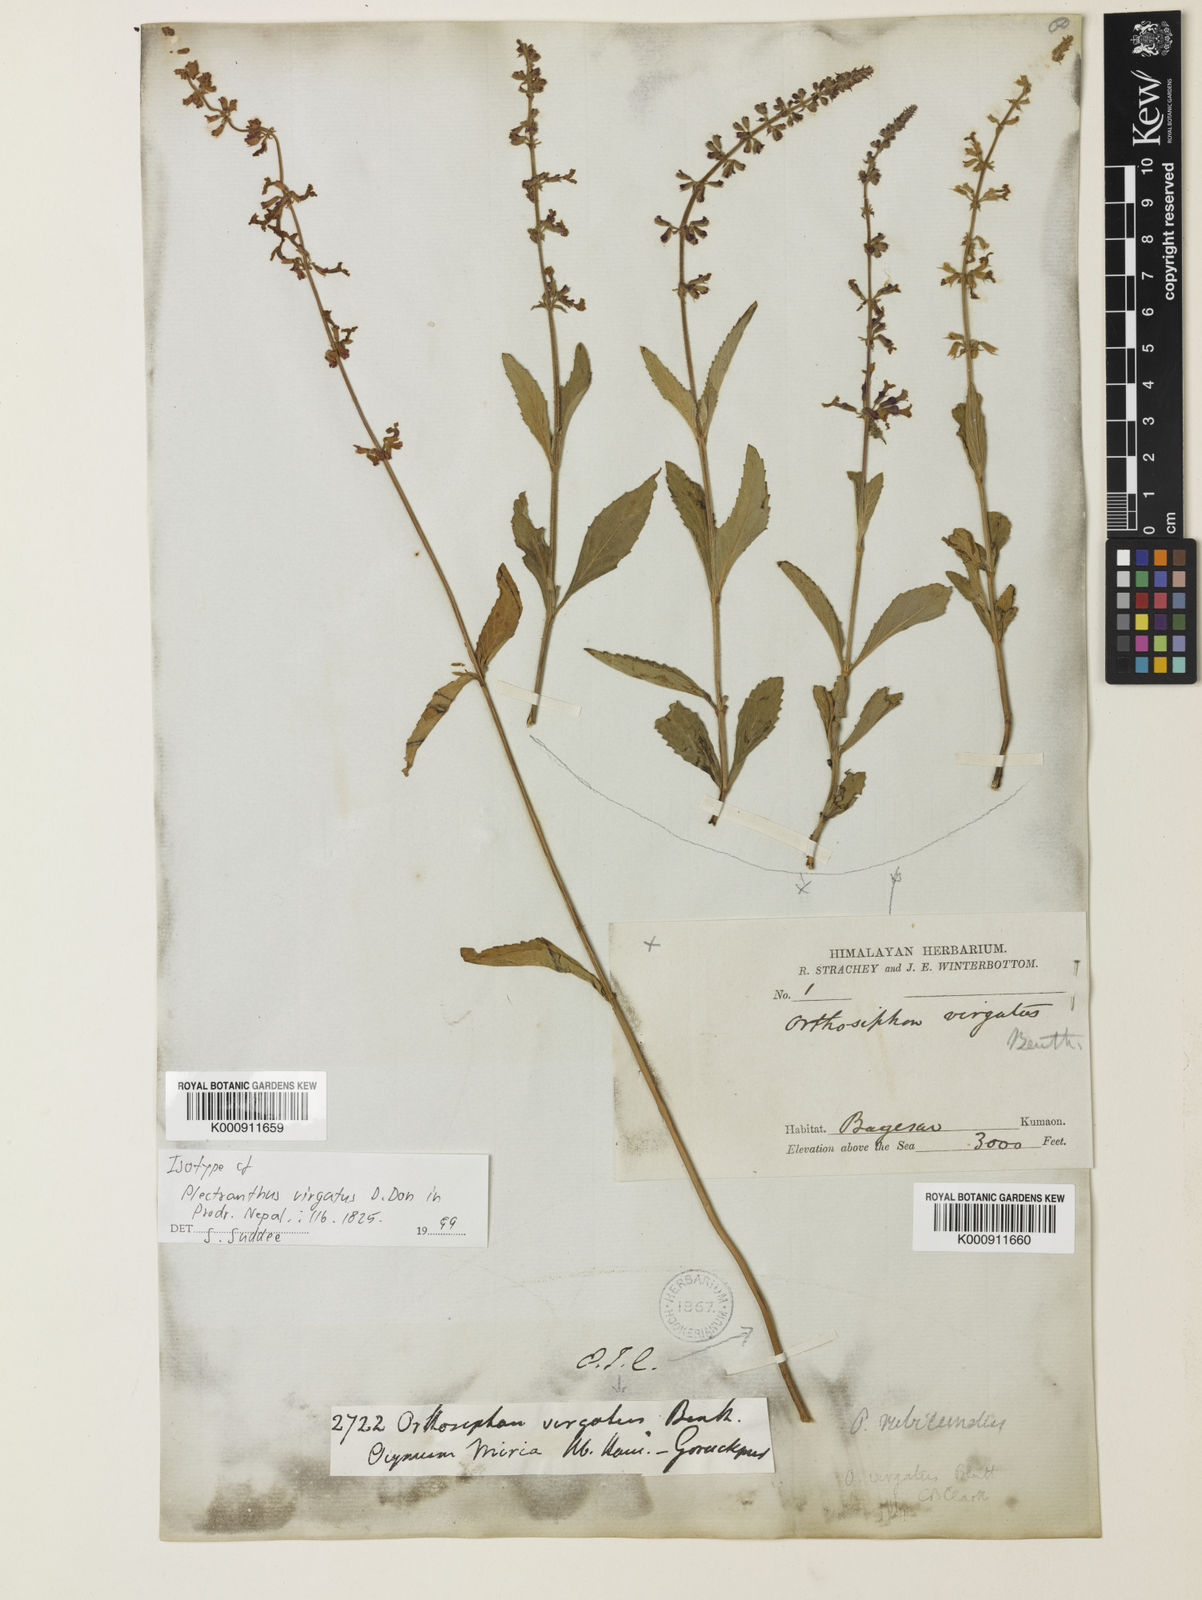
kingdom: Plantae
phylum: Tracheophyta
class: Magnoliopsida
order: Lamiales
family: Lamiaceae
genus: Orthosiphon
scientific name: Orthosiphon rubicundus
